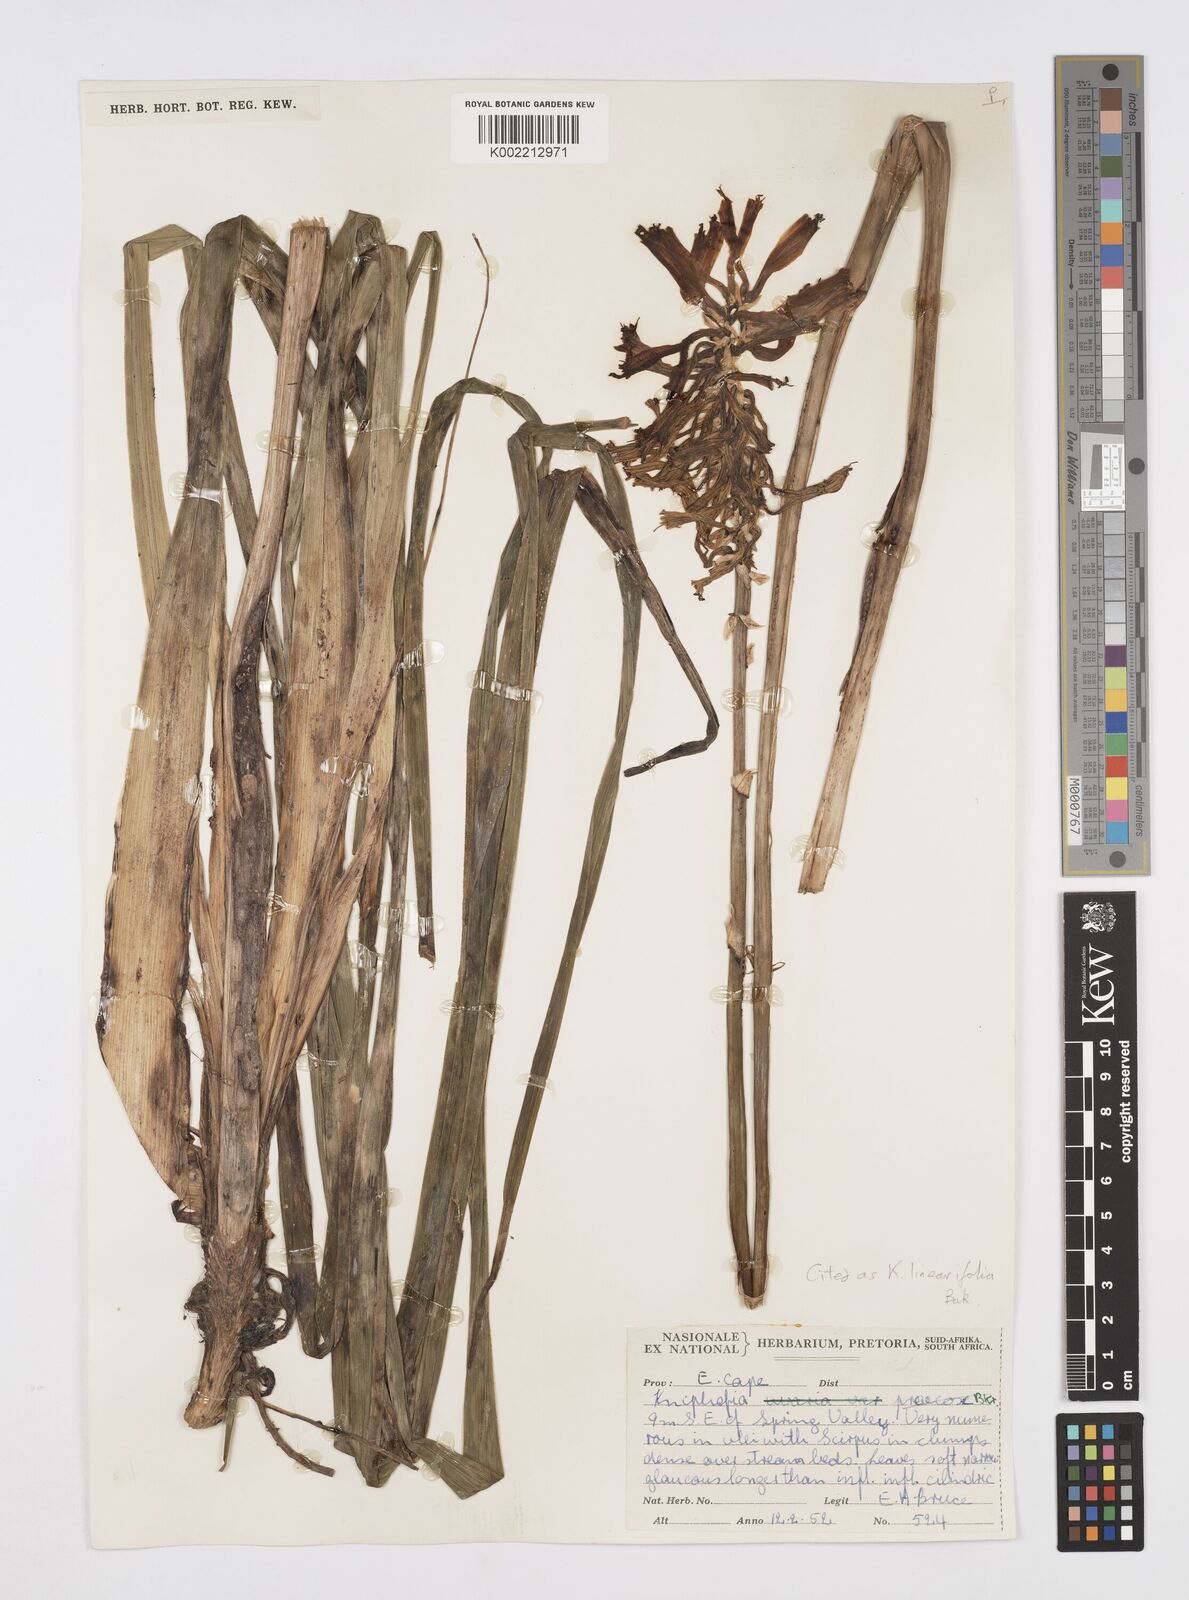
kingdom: Plantae
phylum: Tracheophyta
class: Liliopsida
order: Asparagales
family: Asphodelaceae
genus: Kniphofia
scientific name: Kniphofia linearifolia
